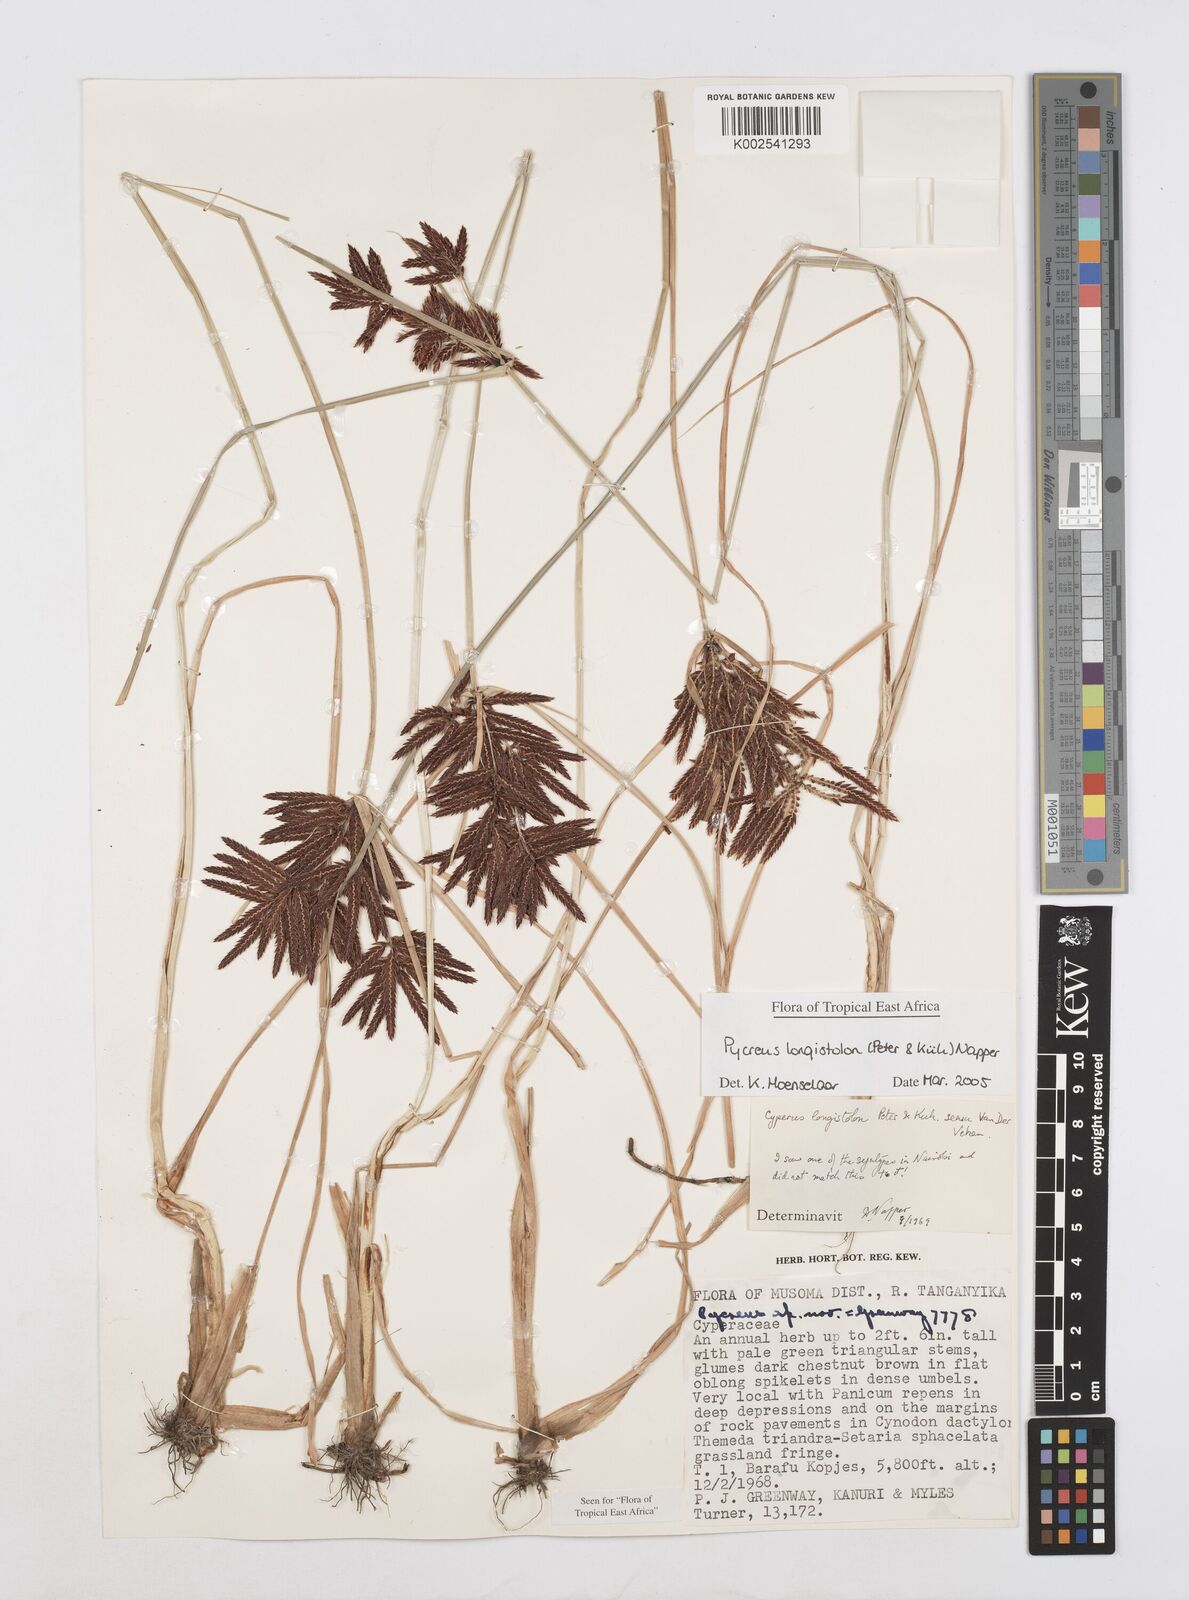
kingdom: Plantae
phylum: Tracheophyta
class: Liliopsida
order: Poales
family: Cyperaceae
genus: Cyperus
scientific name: Cyperus chrysanthus
